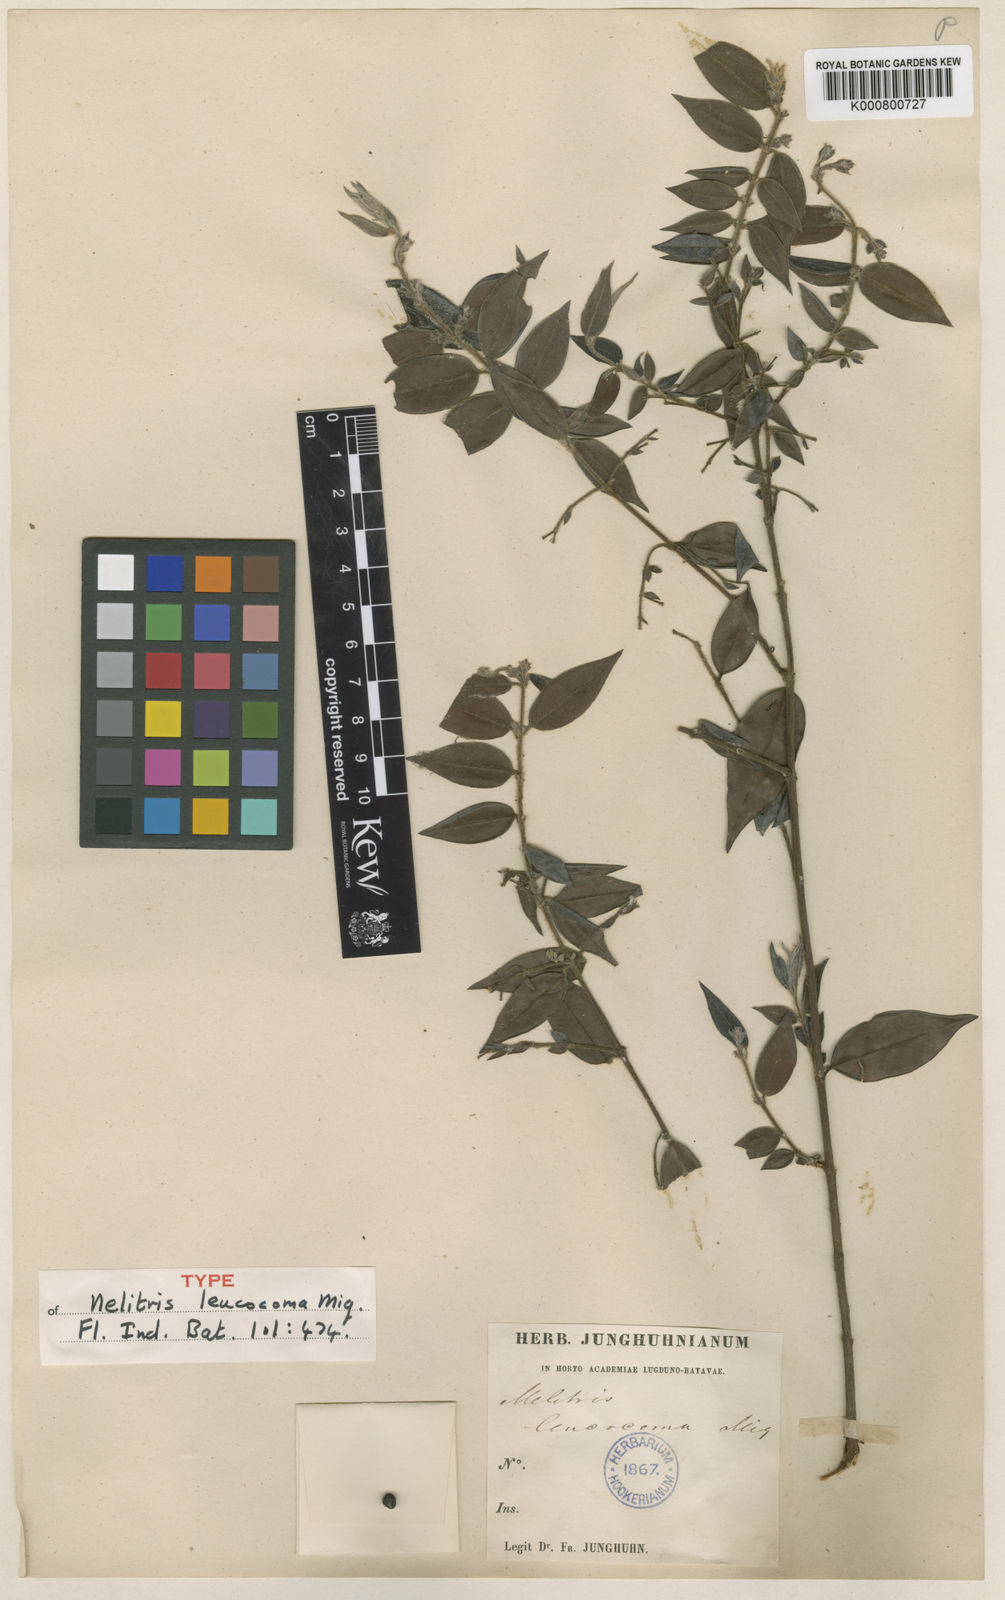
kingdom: Plantae
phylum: Tracheophyta
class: Magnoliopsida
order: Myrtales
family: Myrtaceae
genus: Decaspermum
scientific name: Decaspermum parviflorum
